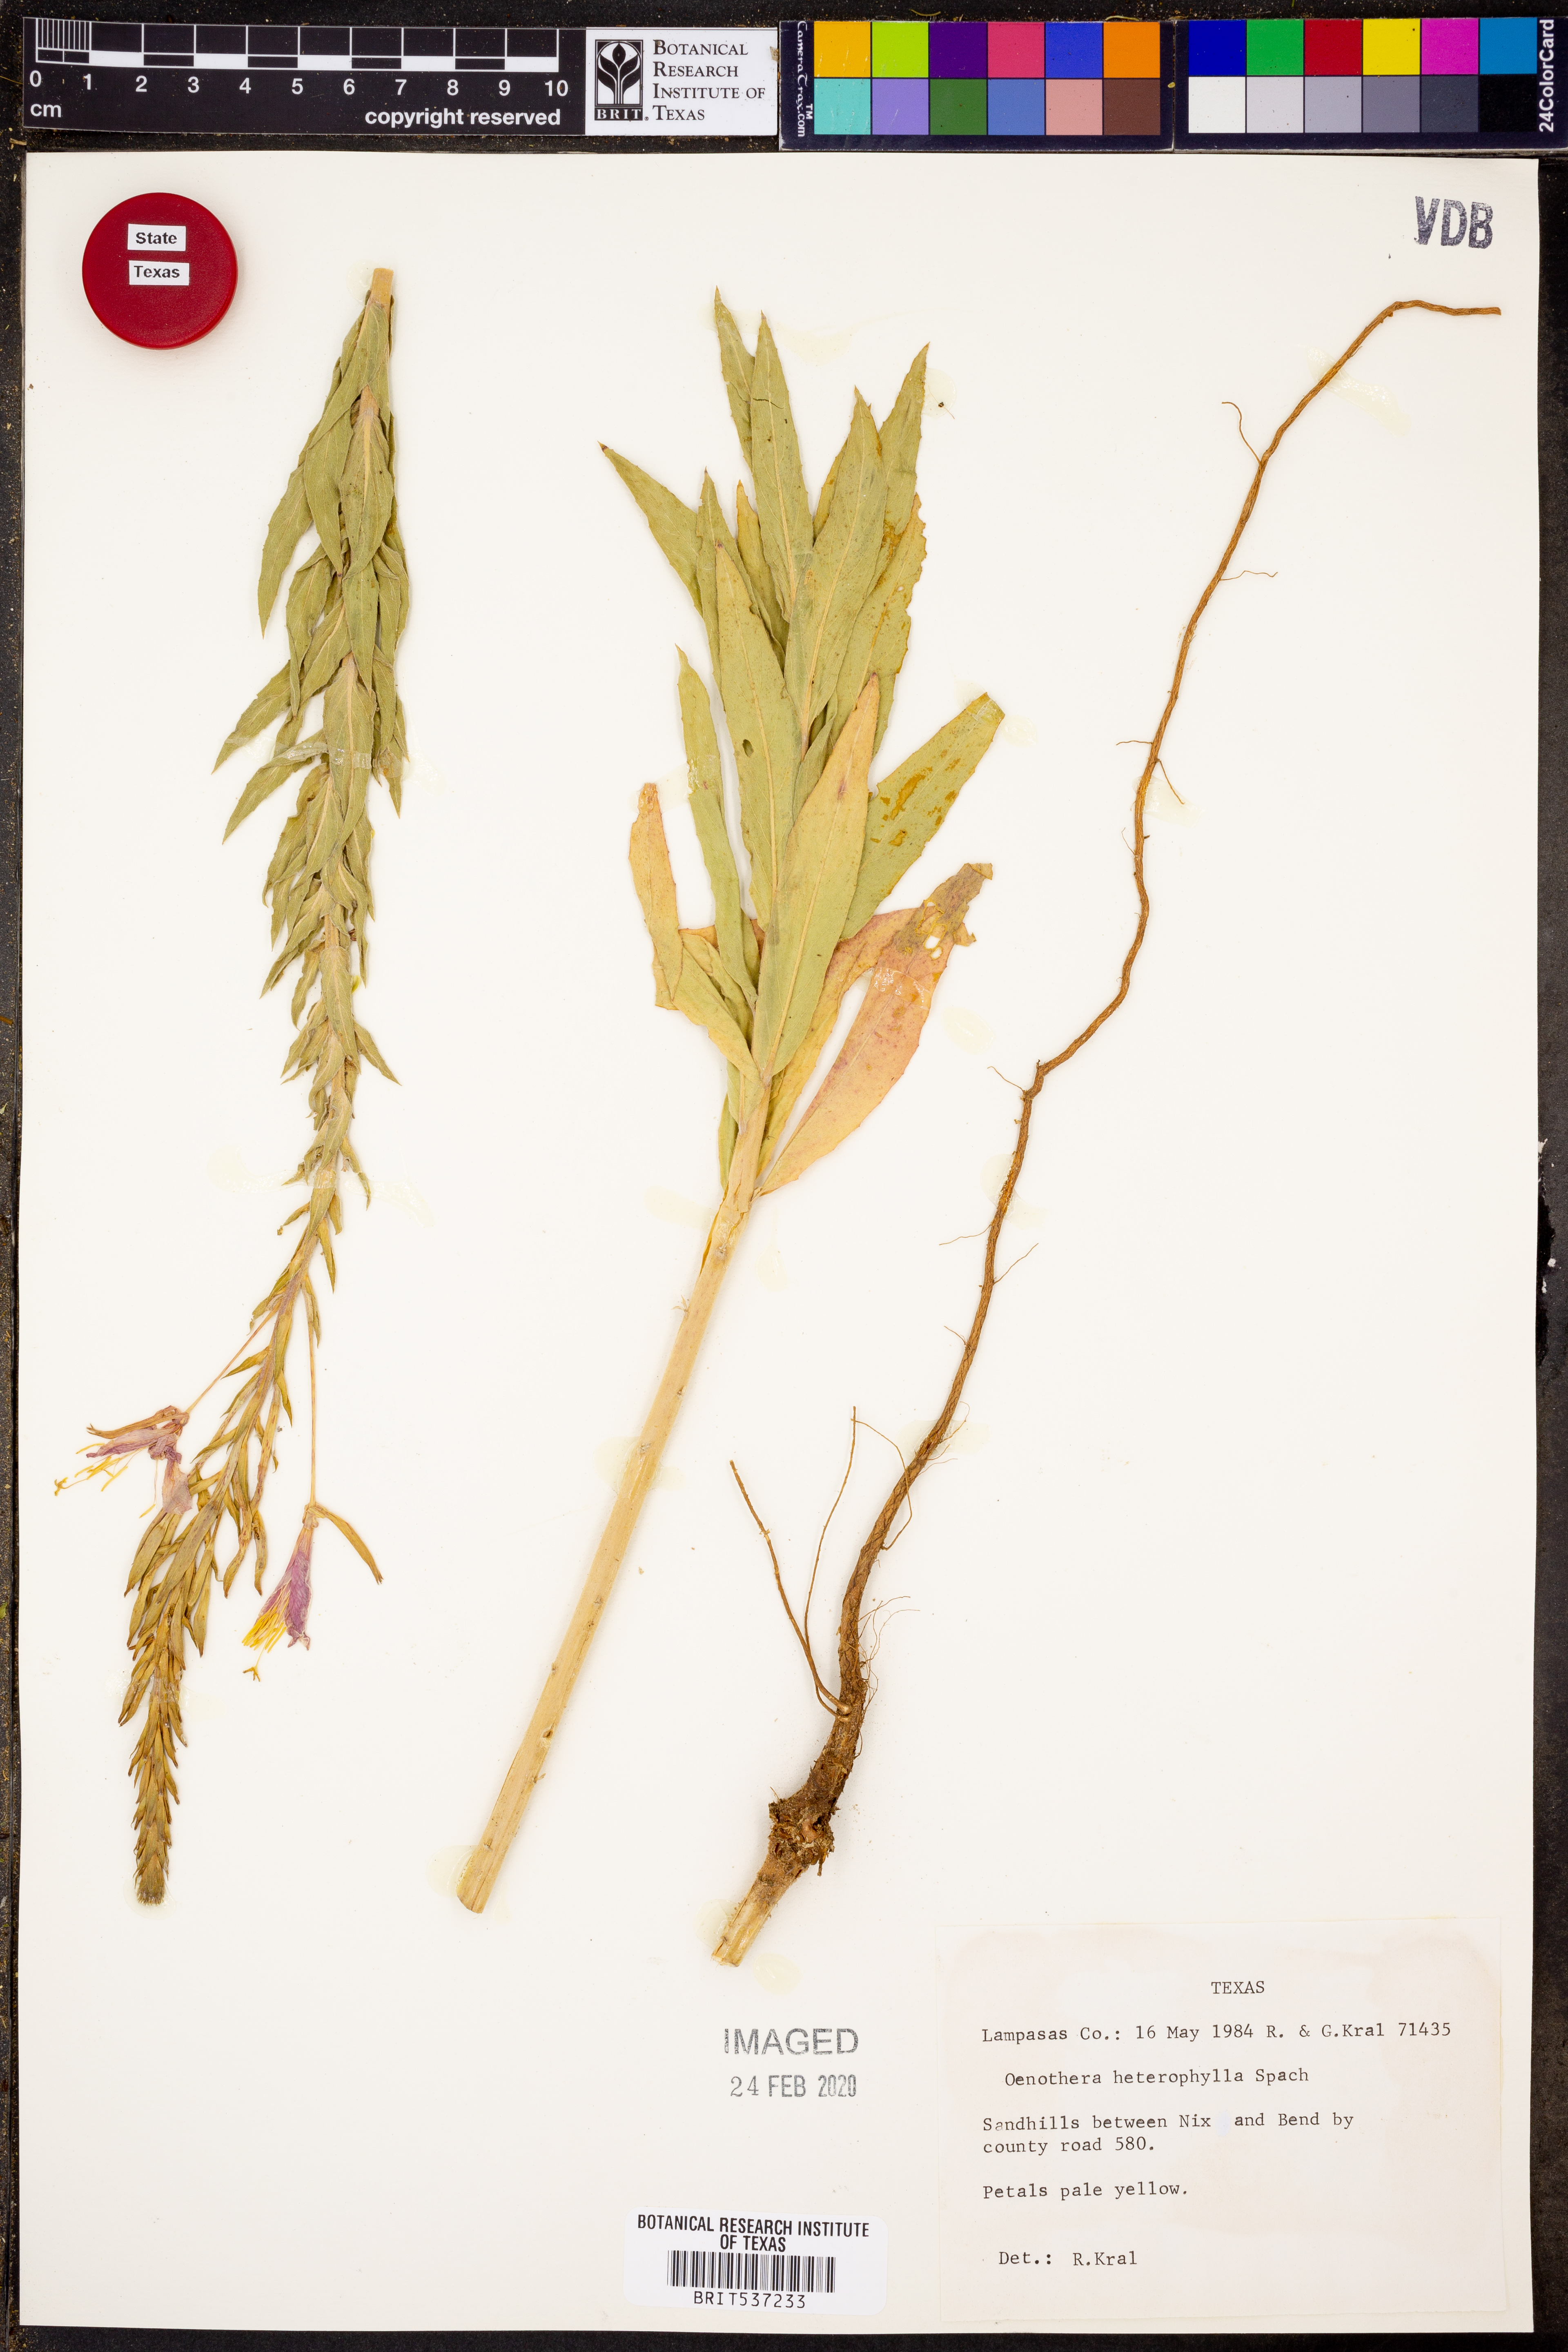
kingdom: Plantae
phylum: Tracheophyta
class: Magnoliopsida
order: Myrtales
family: Onagraceae
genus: Camissonia
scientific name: Camissonia dentata
